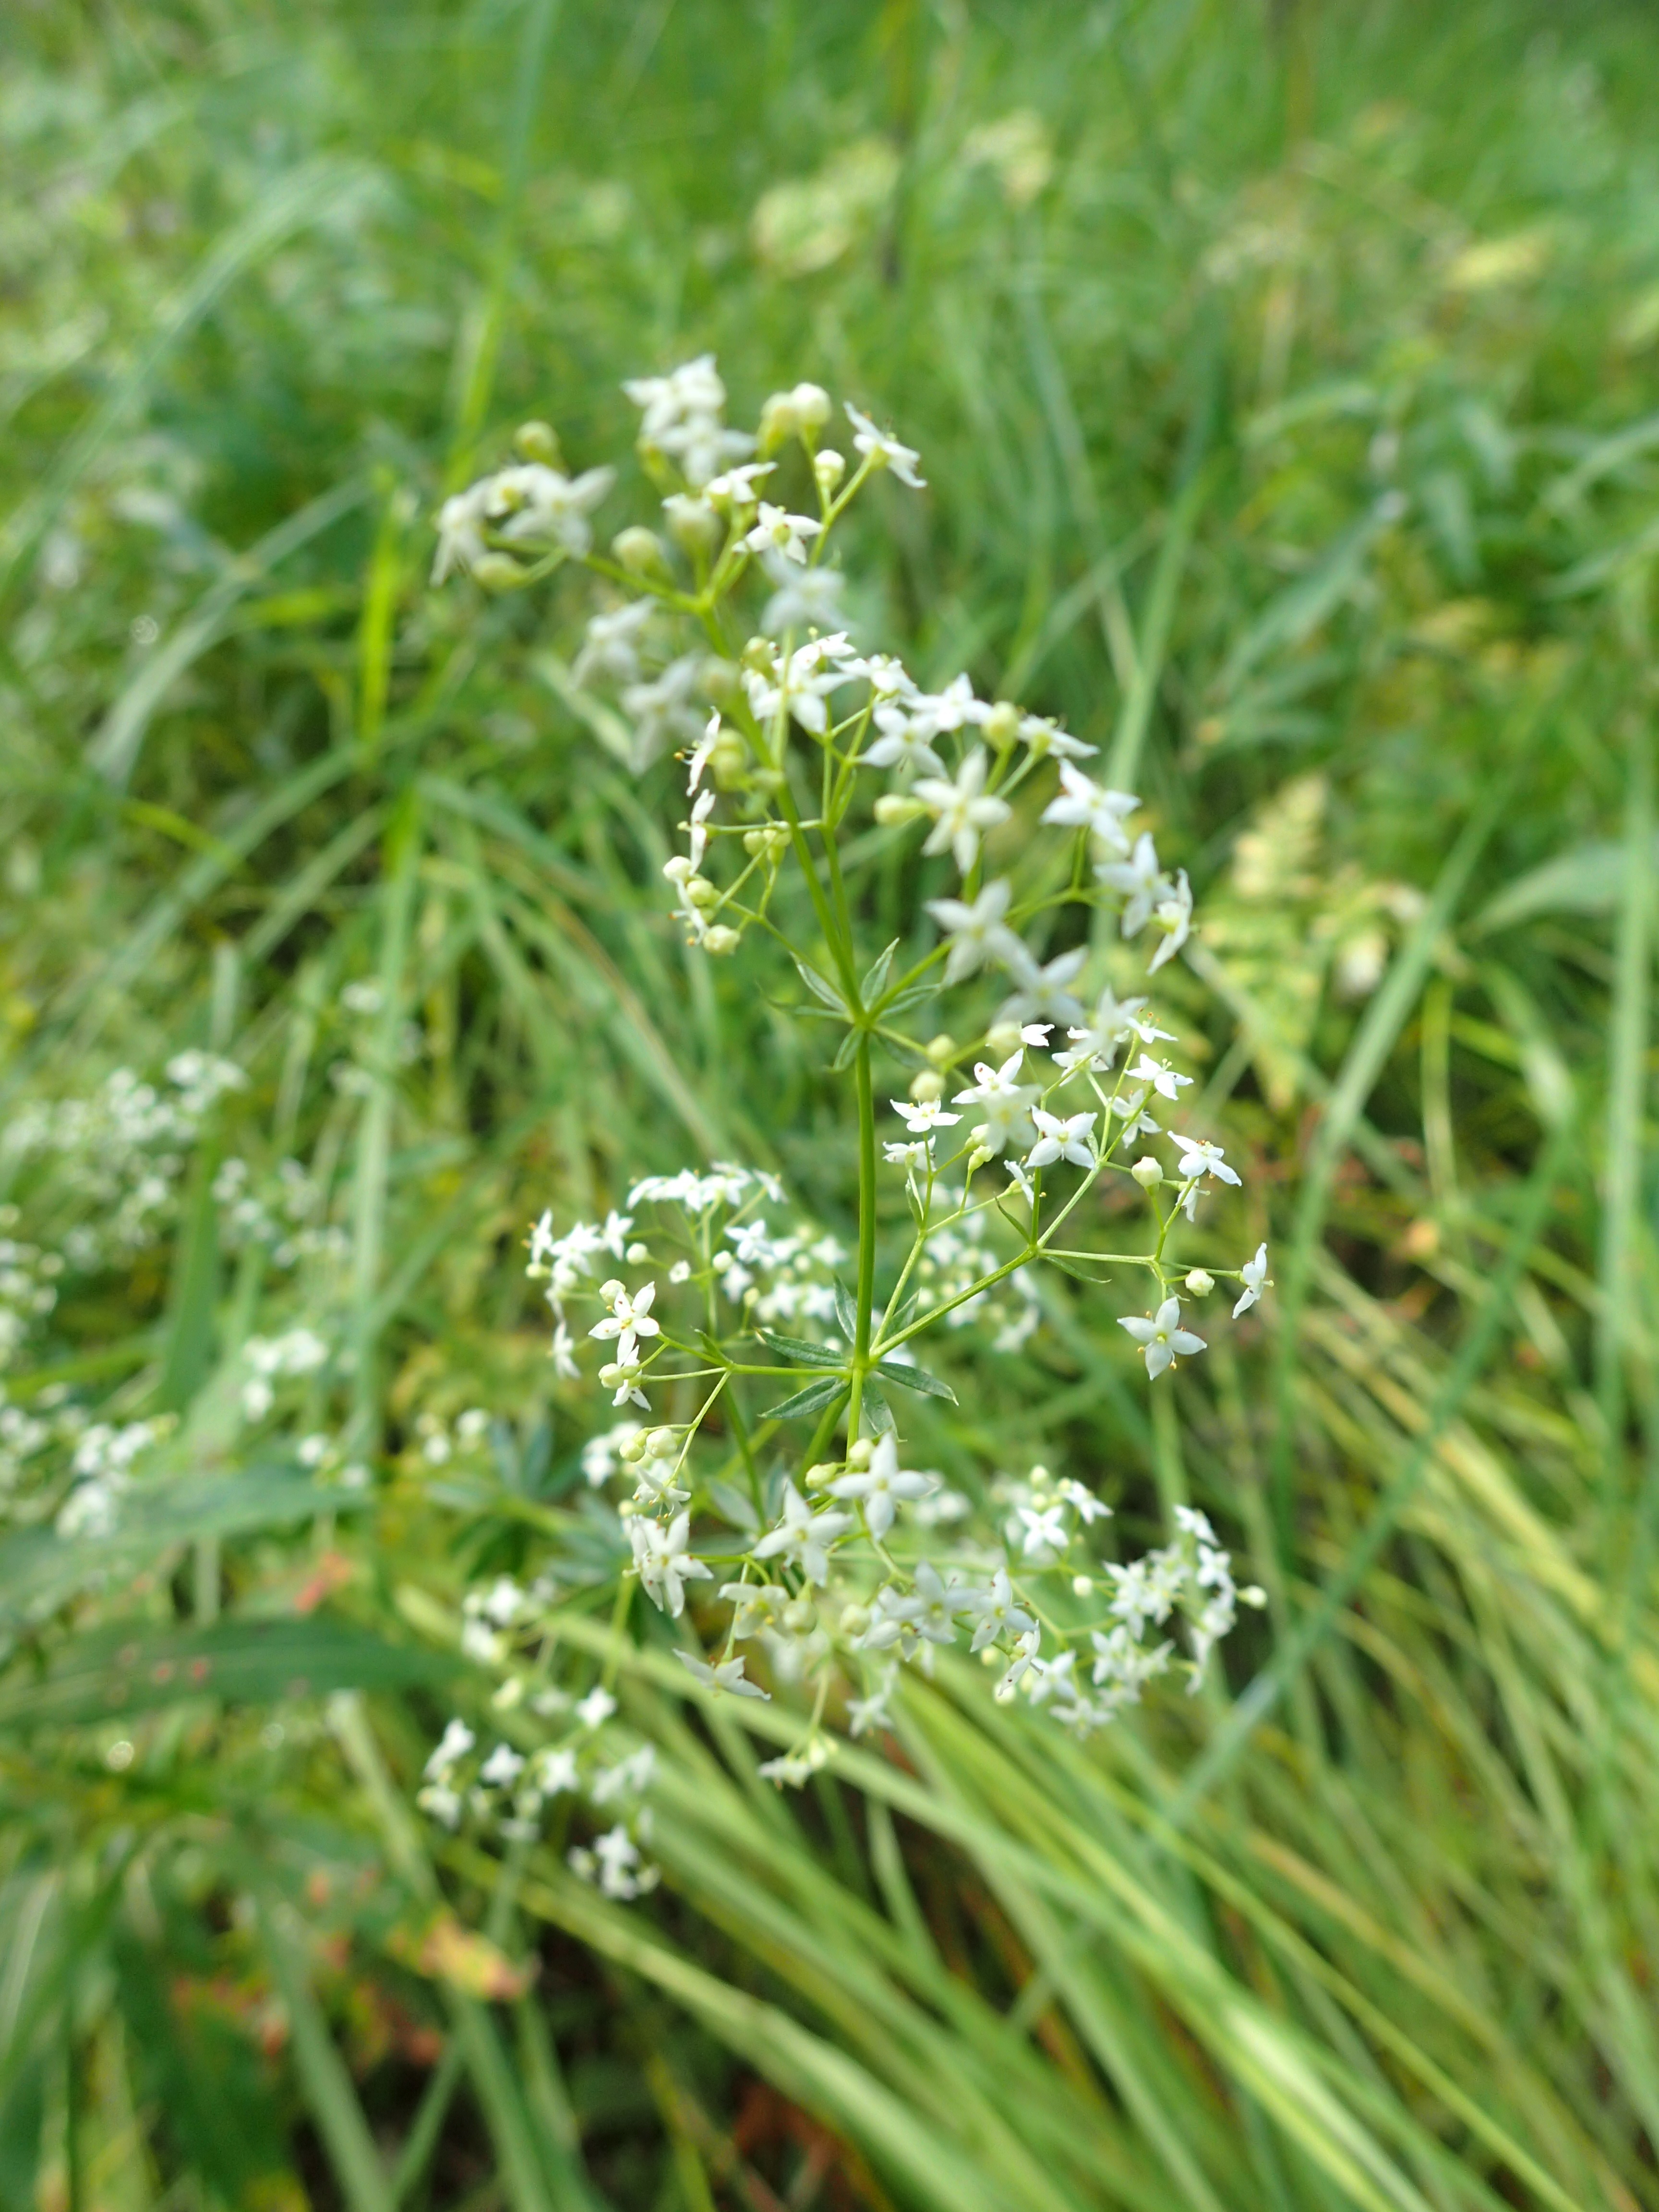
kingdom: Plantae
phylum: Tracheophyta
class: Magnoliopsida
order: Gentianales
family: Rubiaceae
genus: Galium
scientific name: Galium album
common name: White bedstraw
